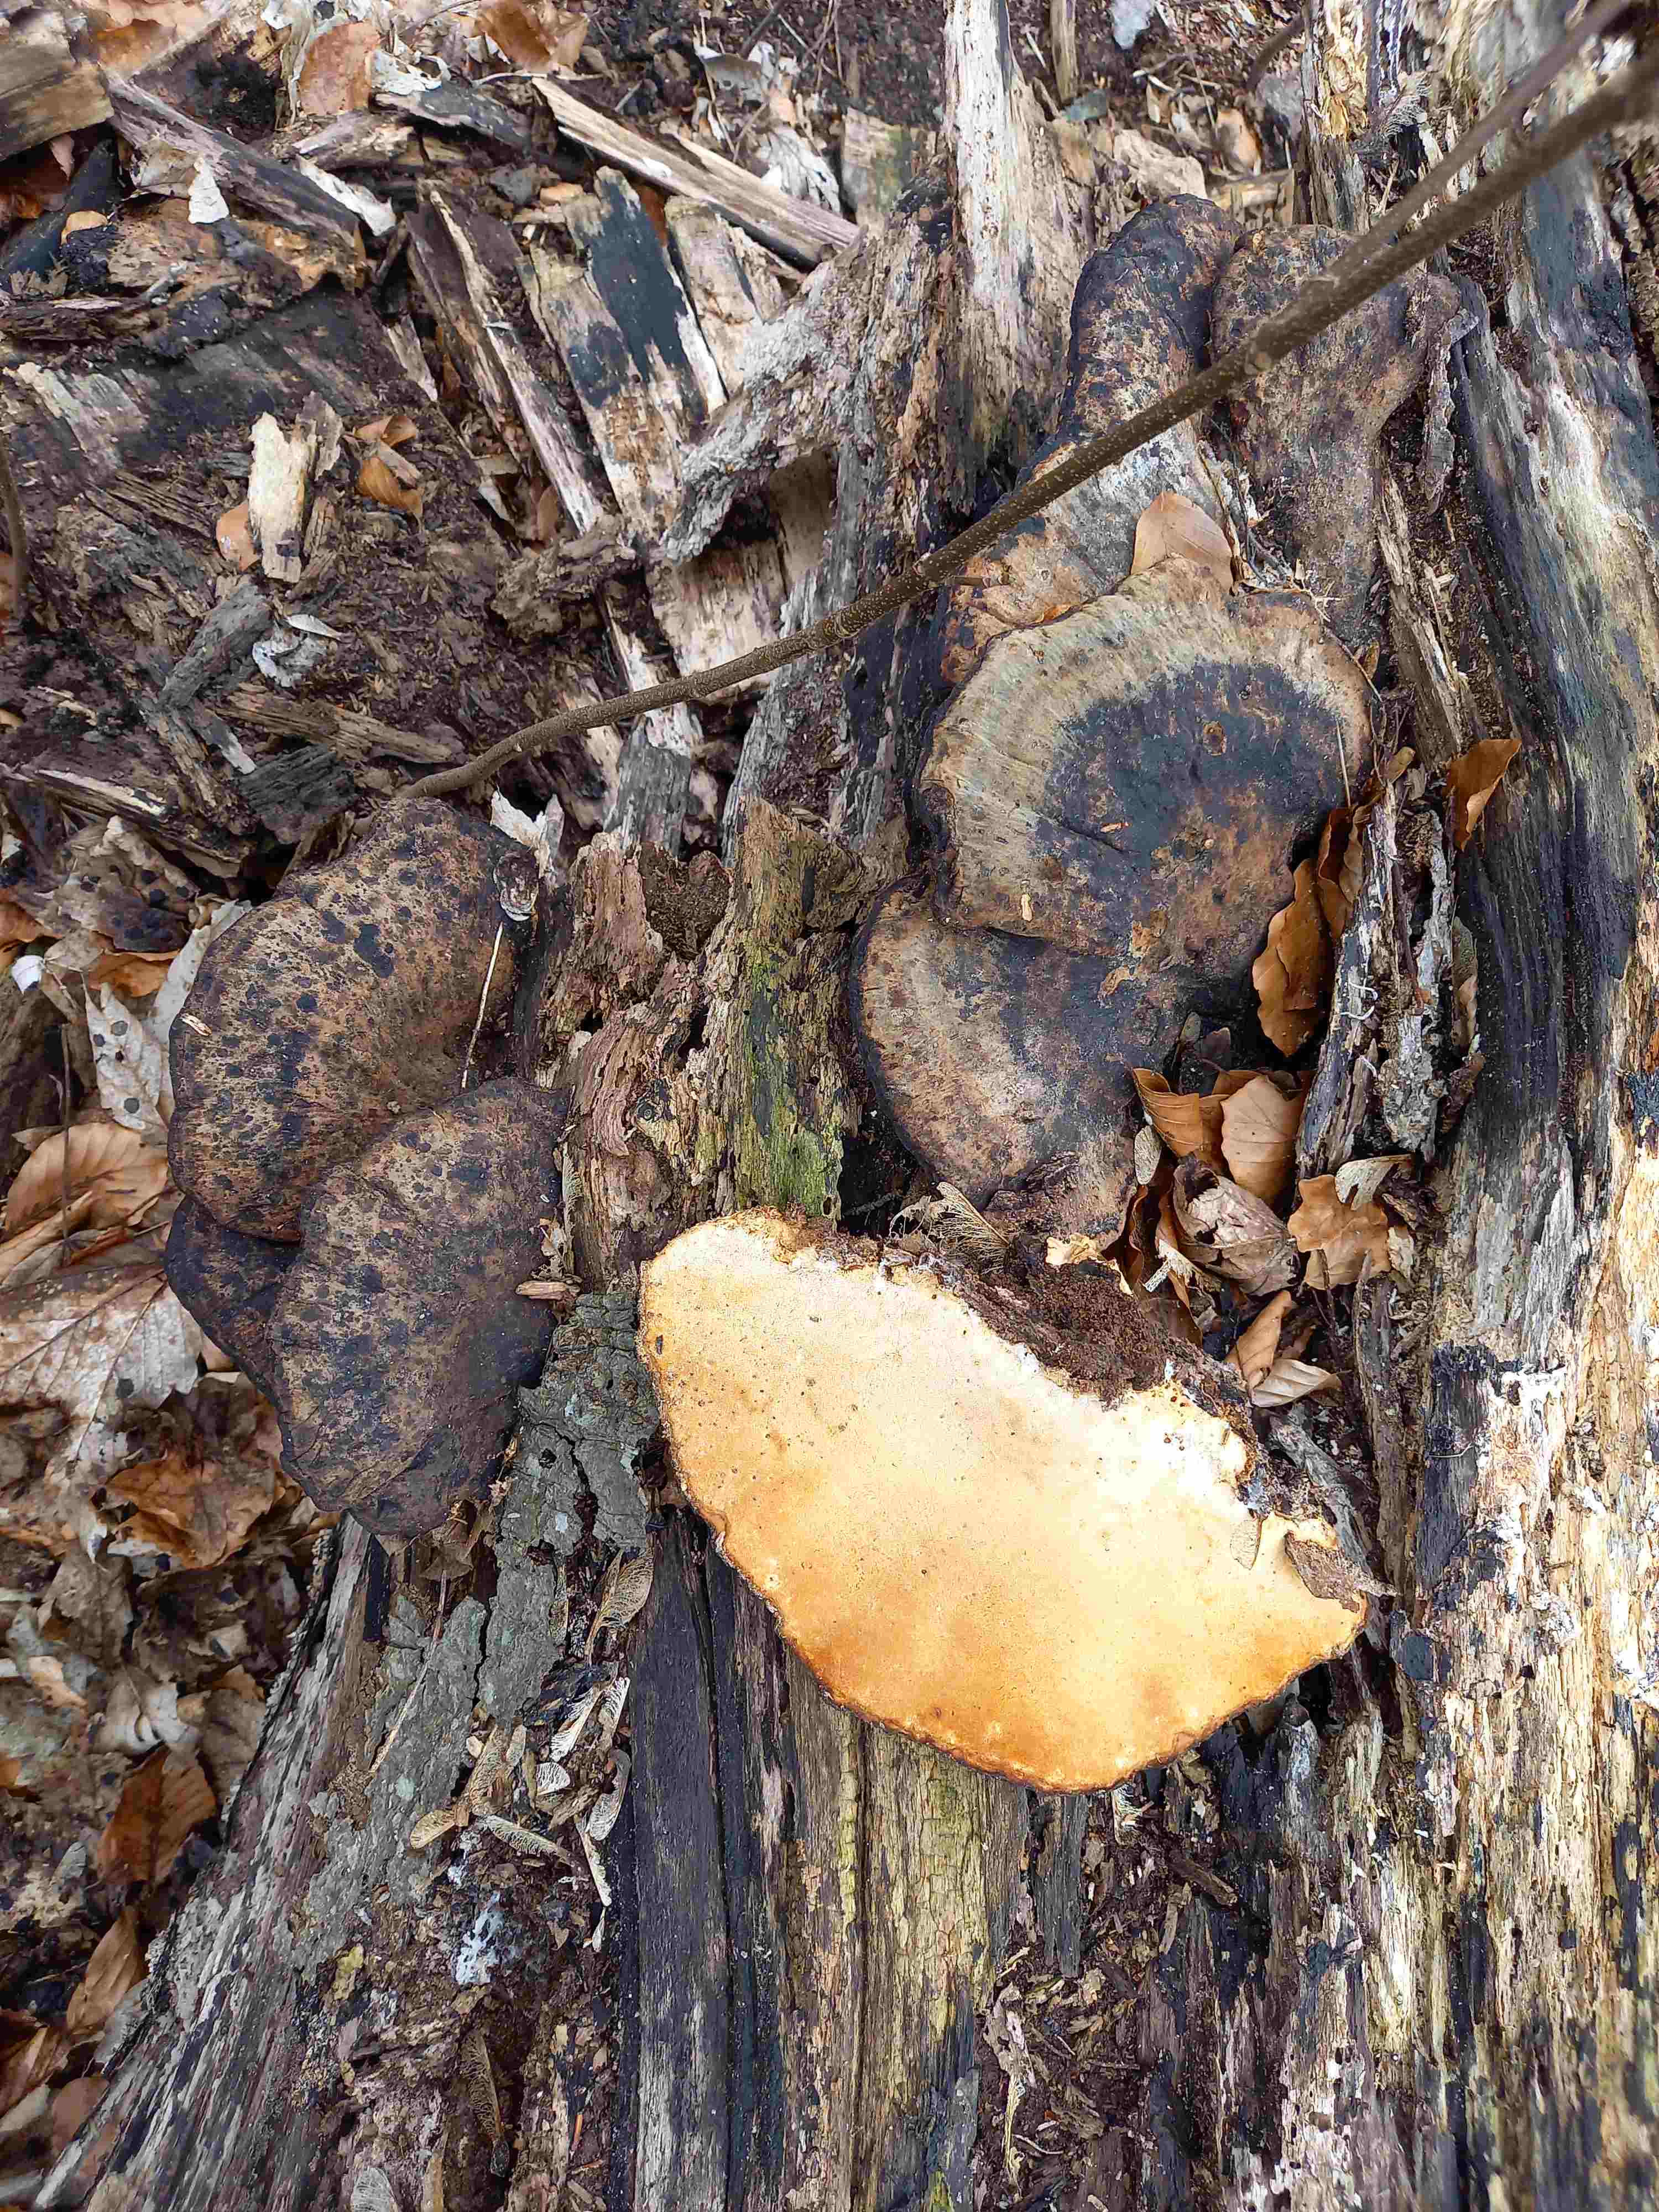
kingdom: Fungi
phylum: Basidiomycota
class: Agaricomycetes
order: Polyporales
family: Ischnodermataceae
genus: Ischnoderma
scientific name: Ischnoderma resinosum
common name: løv-tjæreporesvamp
